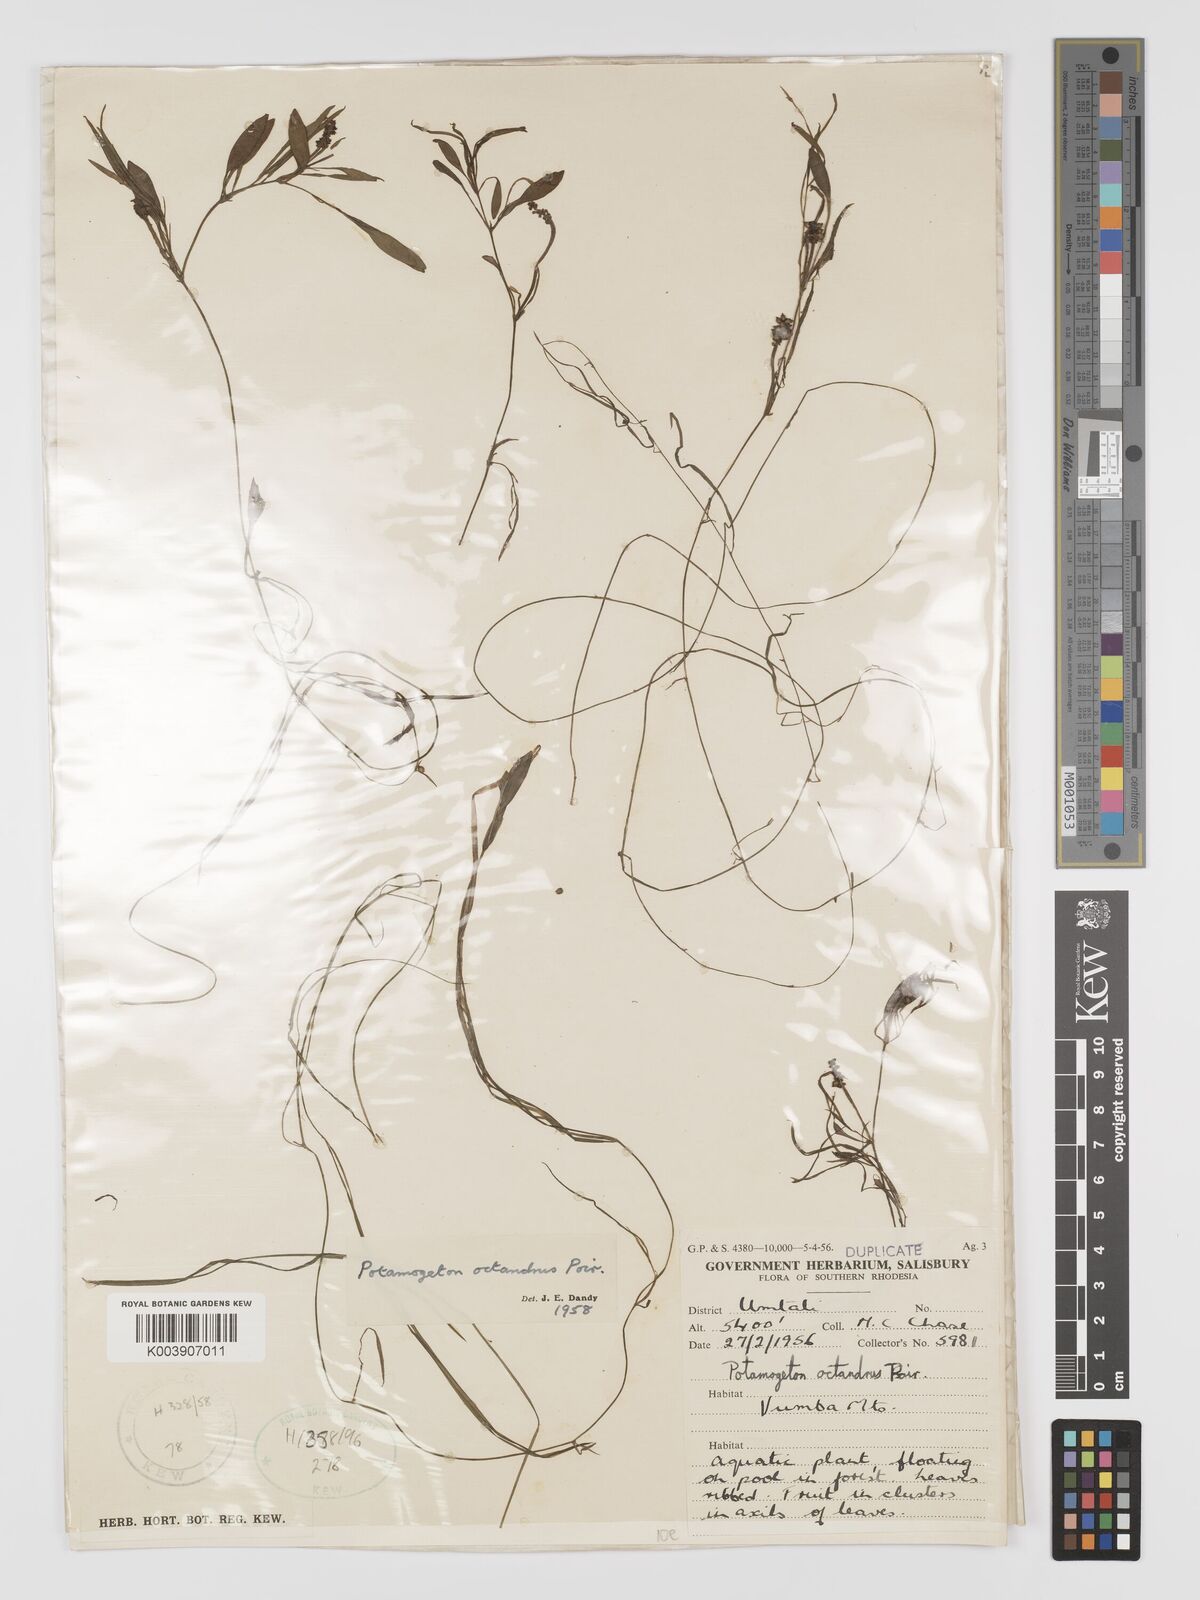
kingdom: Plantae
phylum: Tracheophyta
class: Liliopsida
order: Alismatales
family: Potamogetonaceae
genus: Potamogeton
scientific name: Potamogeton octandrus
